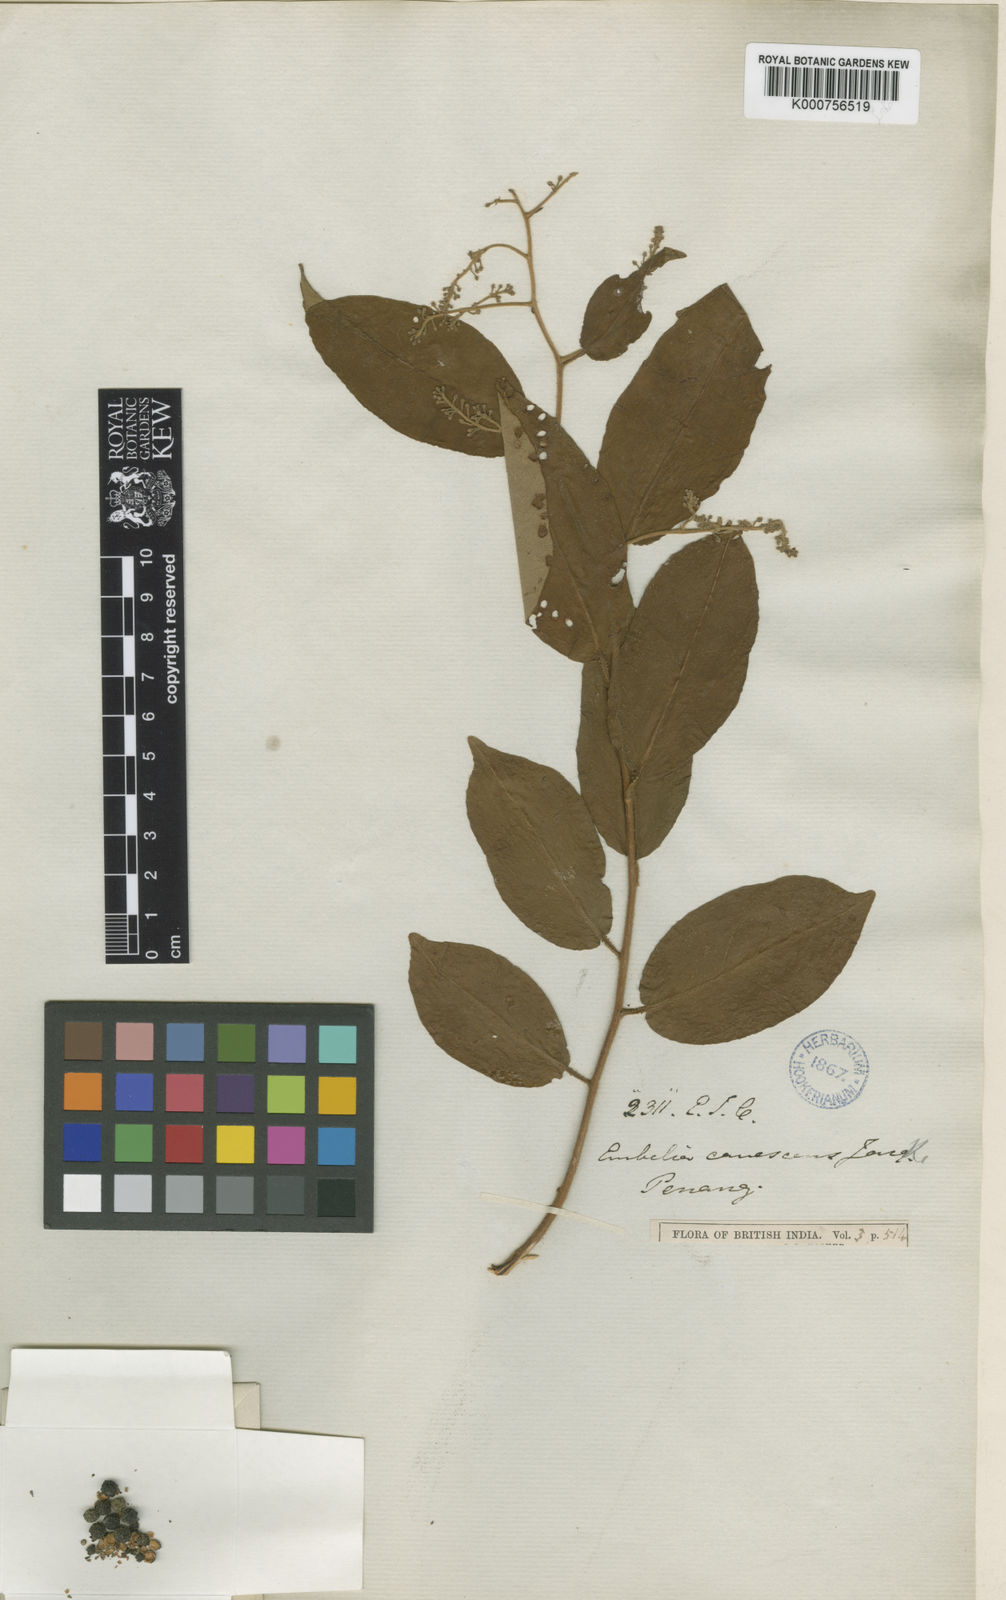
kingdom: Plantae
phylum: Tracheophyta
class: Magnoliopsida
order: Ericales
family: Primulaceae
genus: Embelia
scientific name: Embelia
